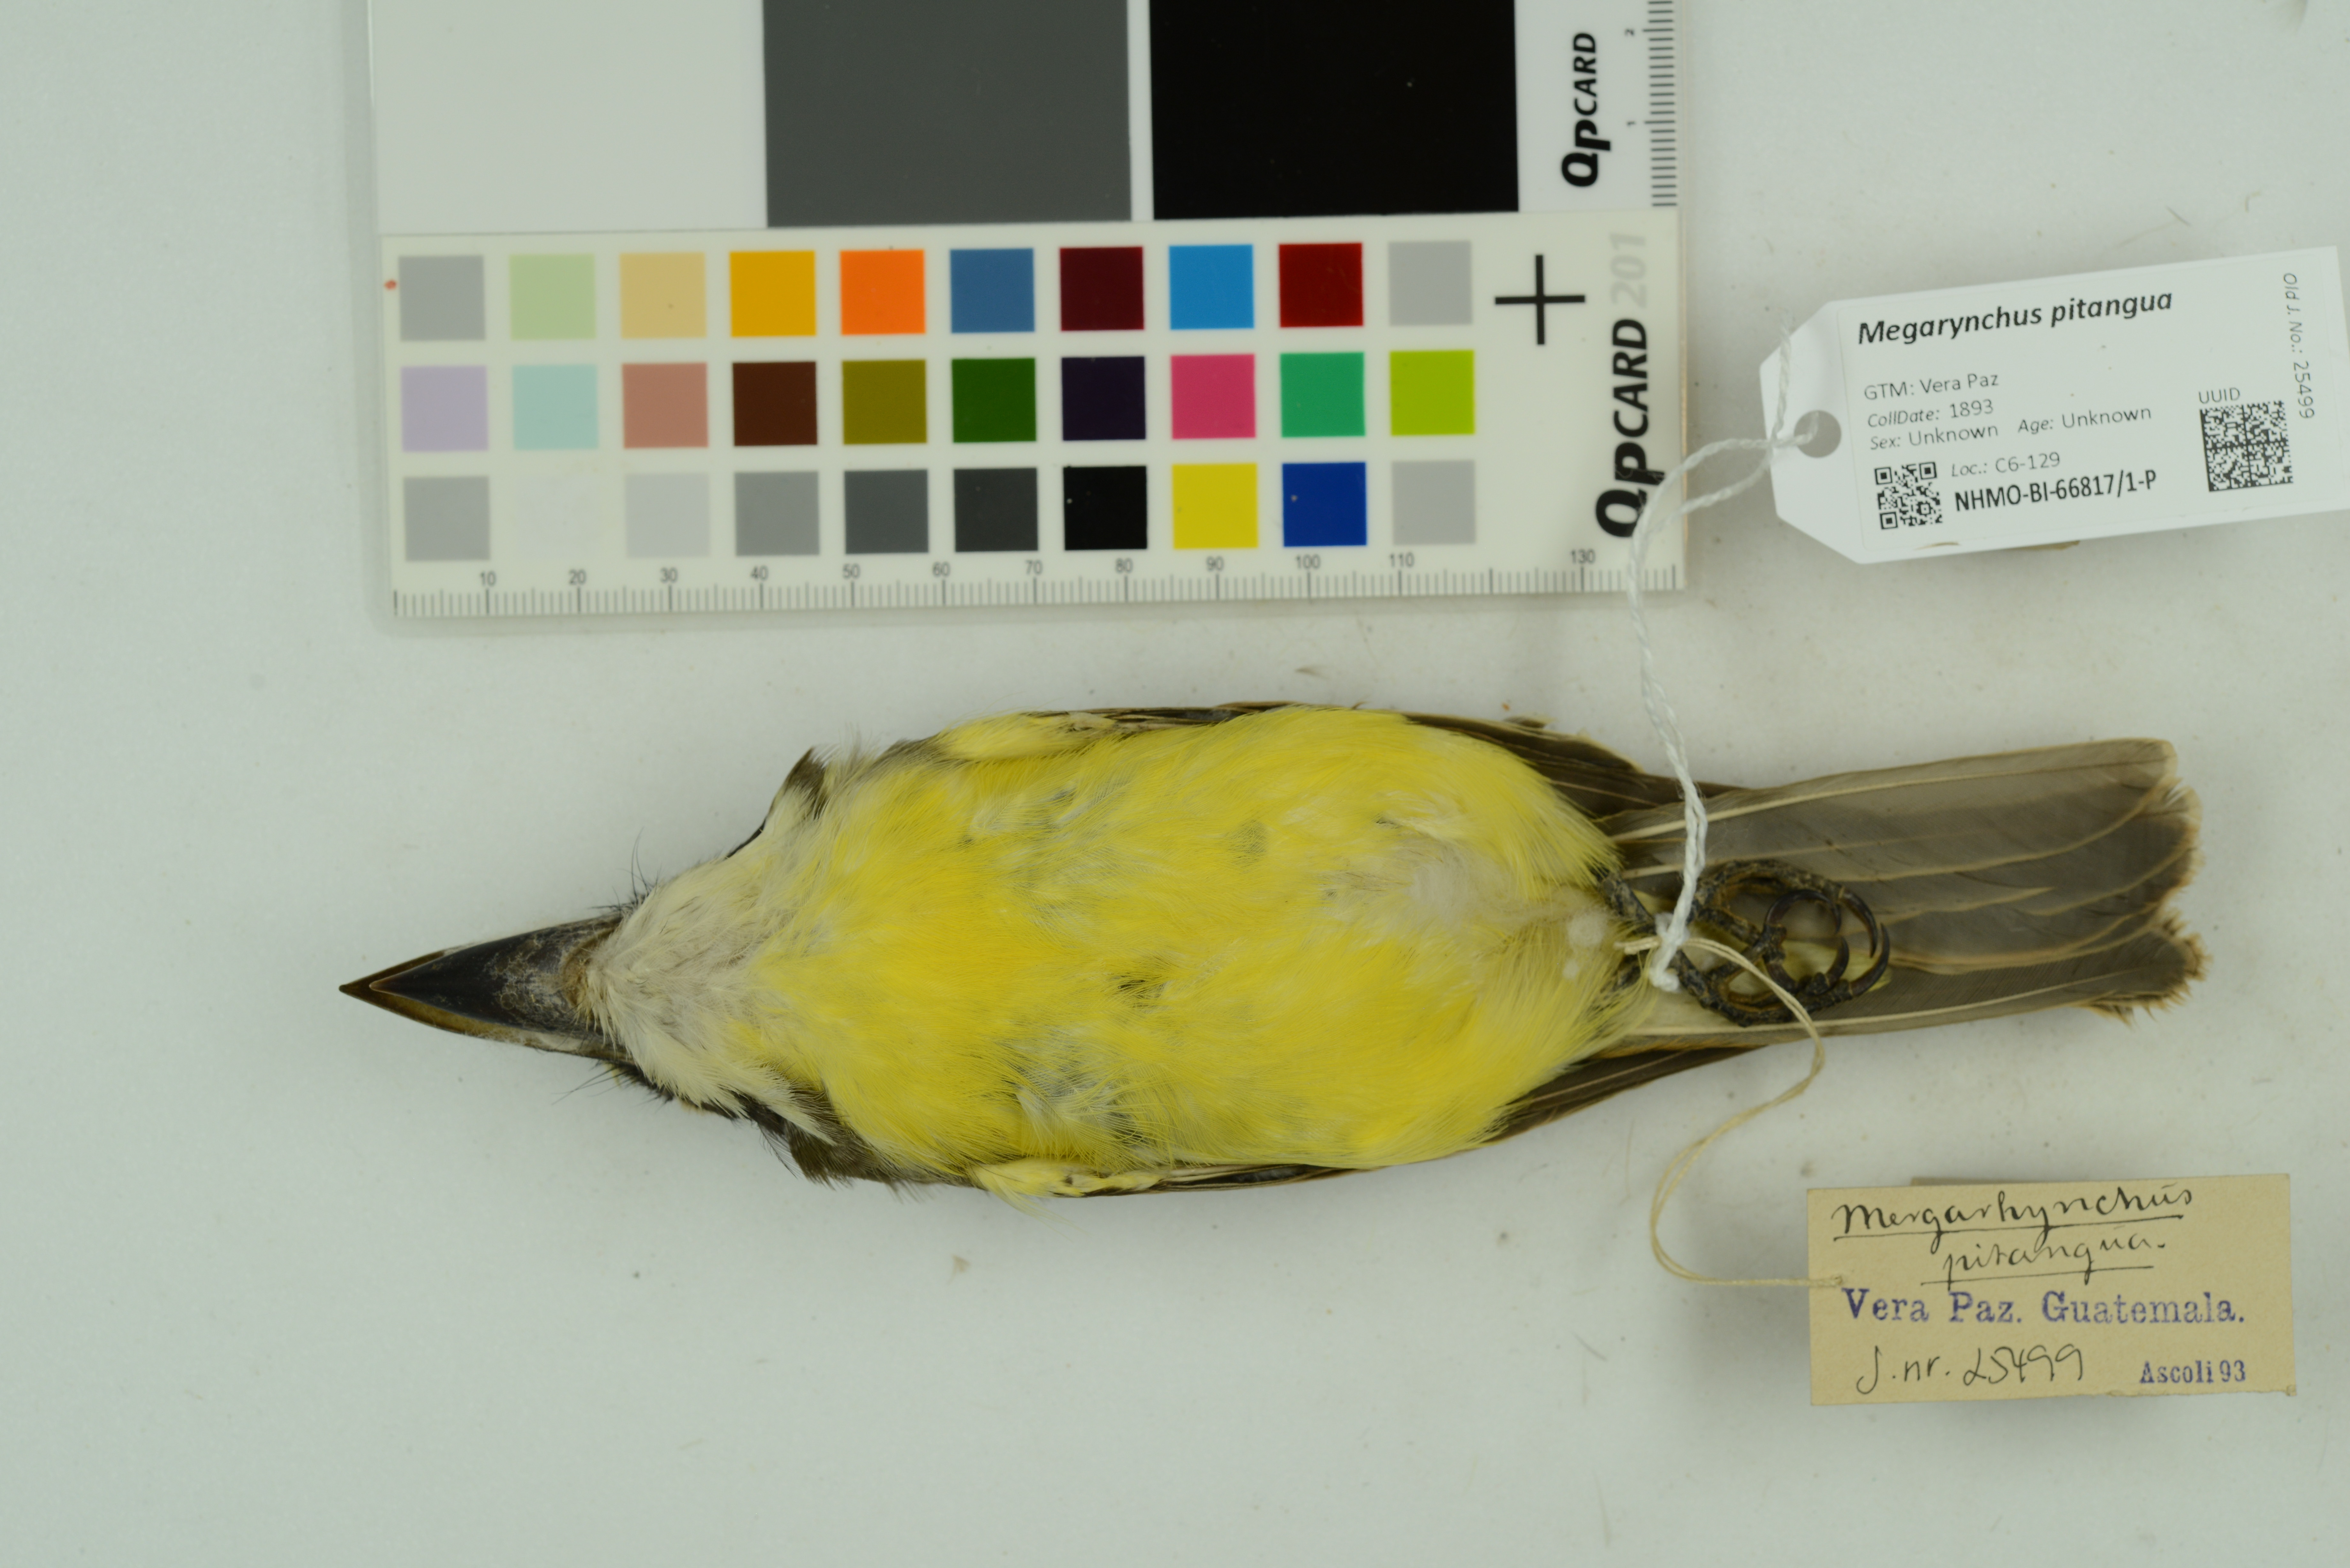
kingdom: Animalia
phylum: Chordata
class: Aves
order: Passeriformes
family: Tyrannidae
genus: Megarynchus
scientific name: Megarynchus pitangua
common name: Boat-billed flycatcher
